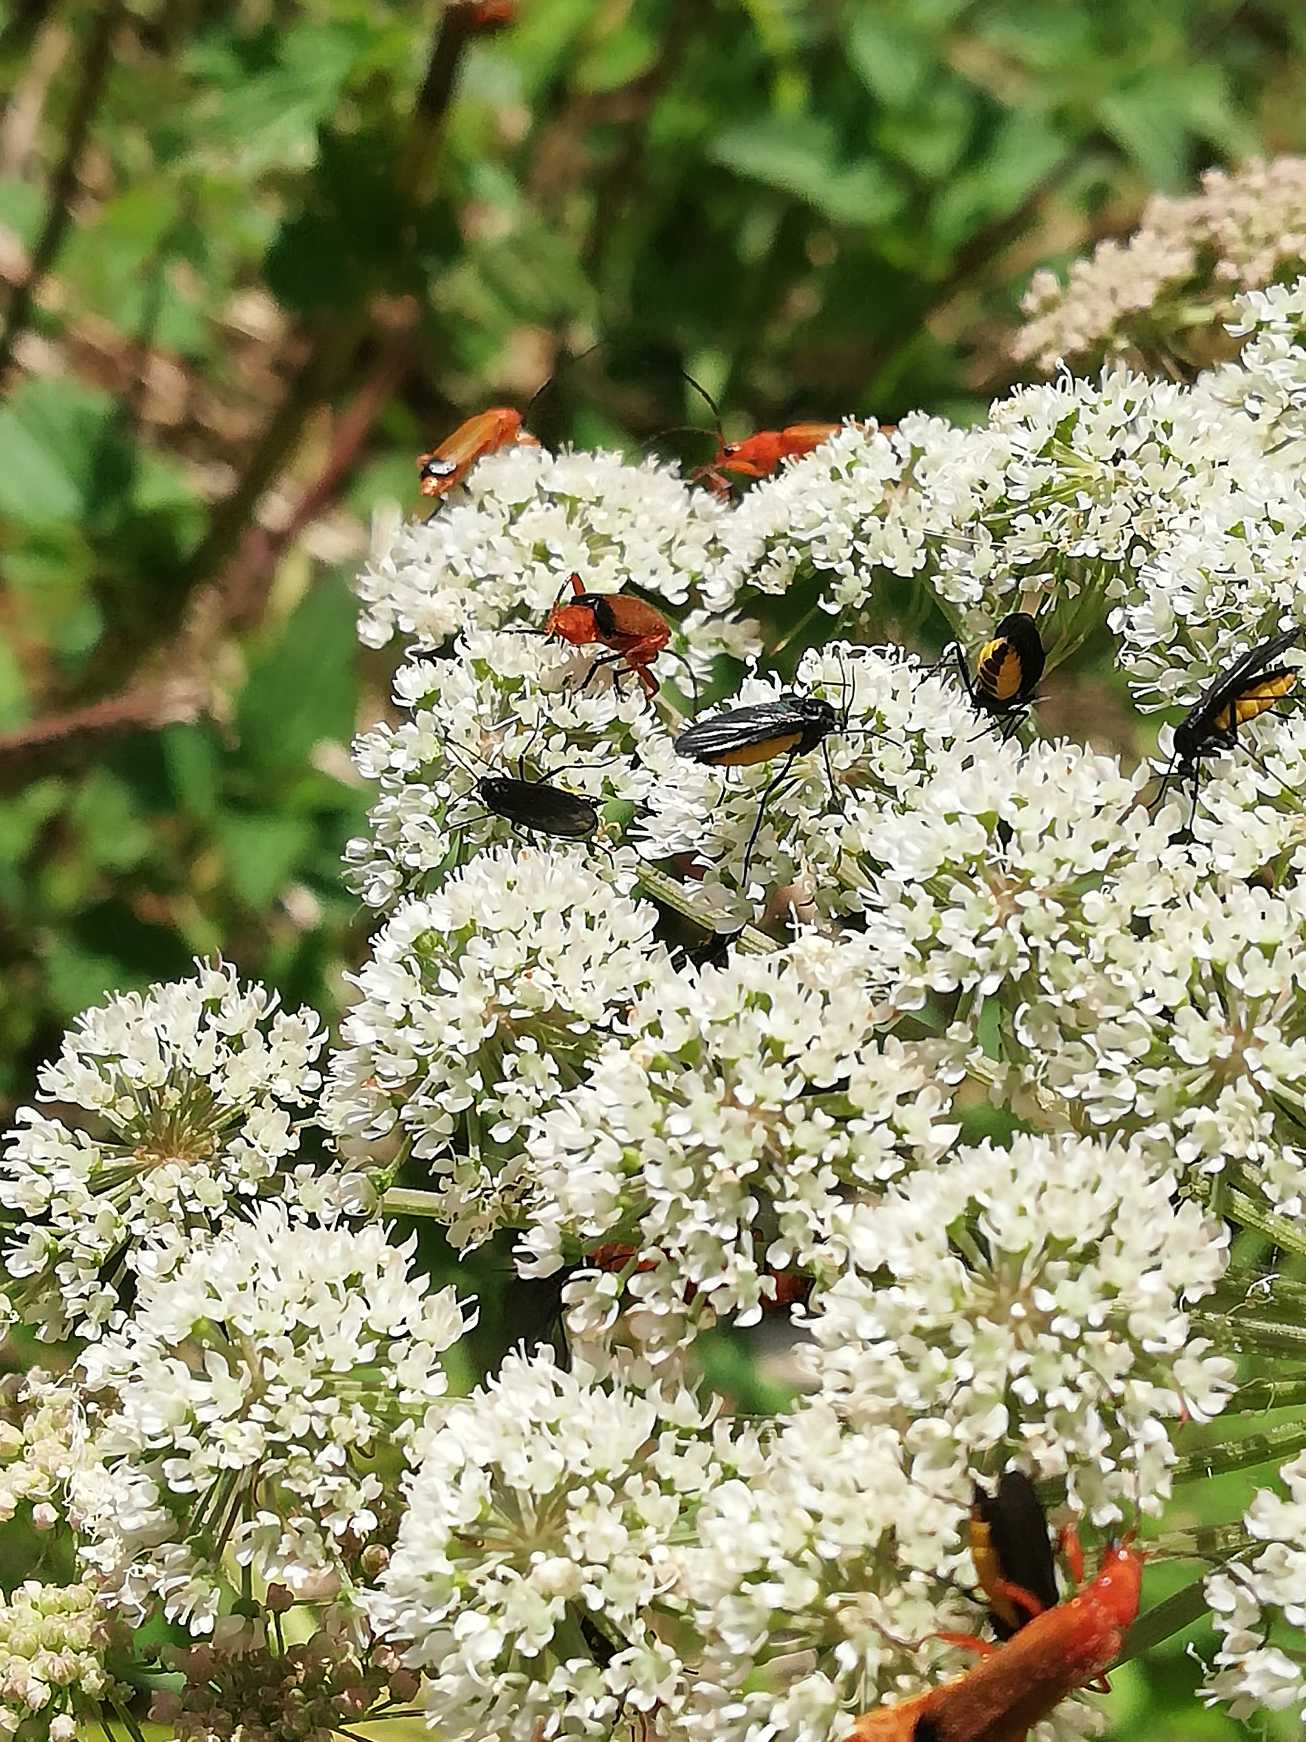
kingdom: Animalia
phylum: Arthropoda
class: Insecta
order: Coleoptera
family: Cantharidae
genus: Rhagonycha
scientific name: Rhagonycha fulva
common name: Præstebille
